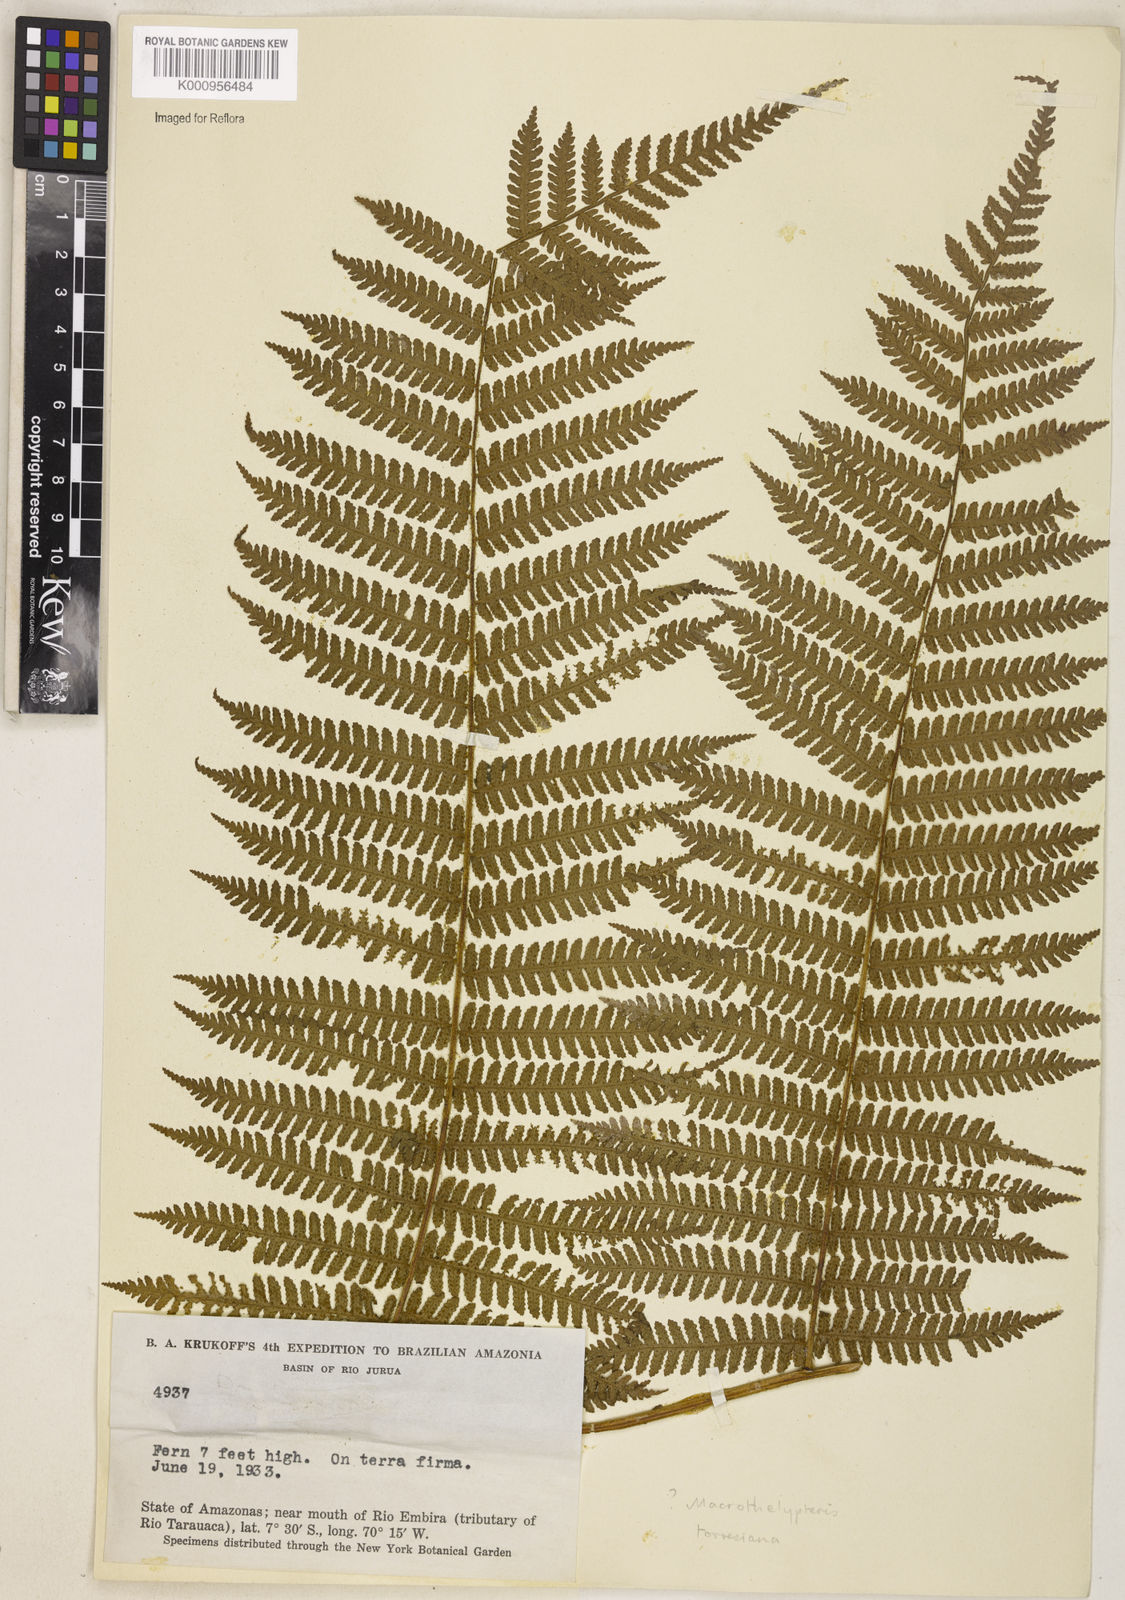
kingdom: Plantae
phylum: Tracheophyta
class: Polypodiopsida
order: Polypodiales
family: Thelypteridaceae
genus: Macrothelypteris
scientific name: Macrothelypteris torresiana
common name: Swordfern
